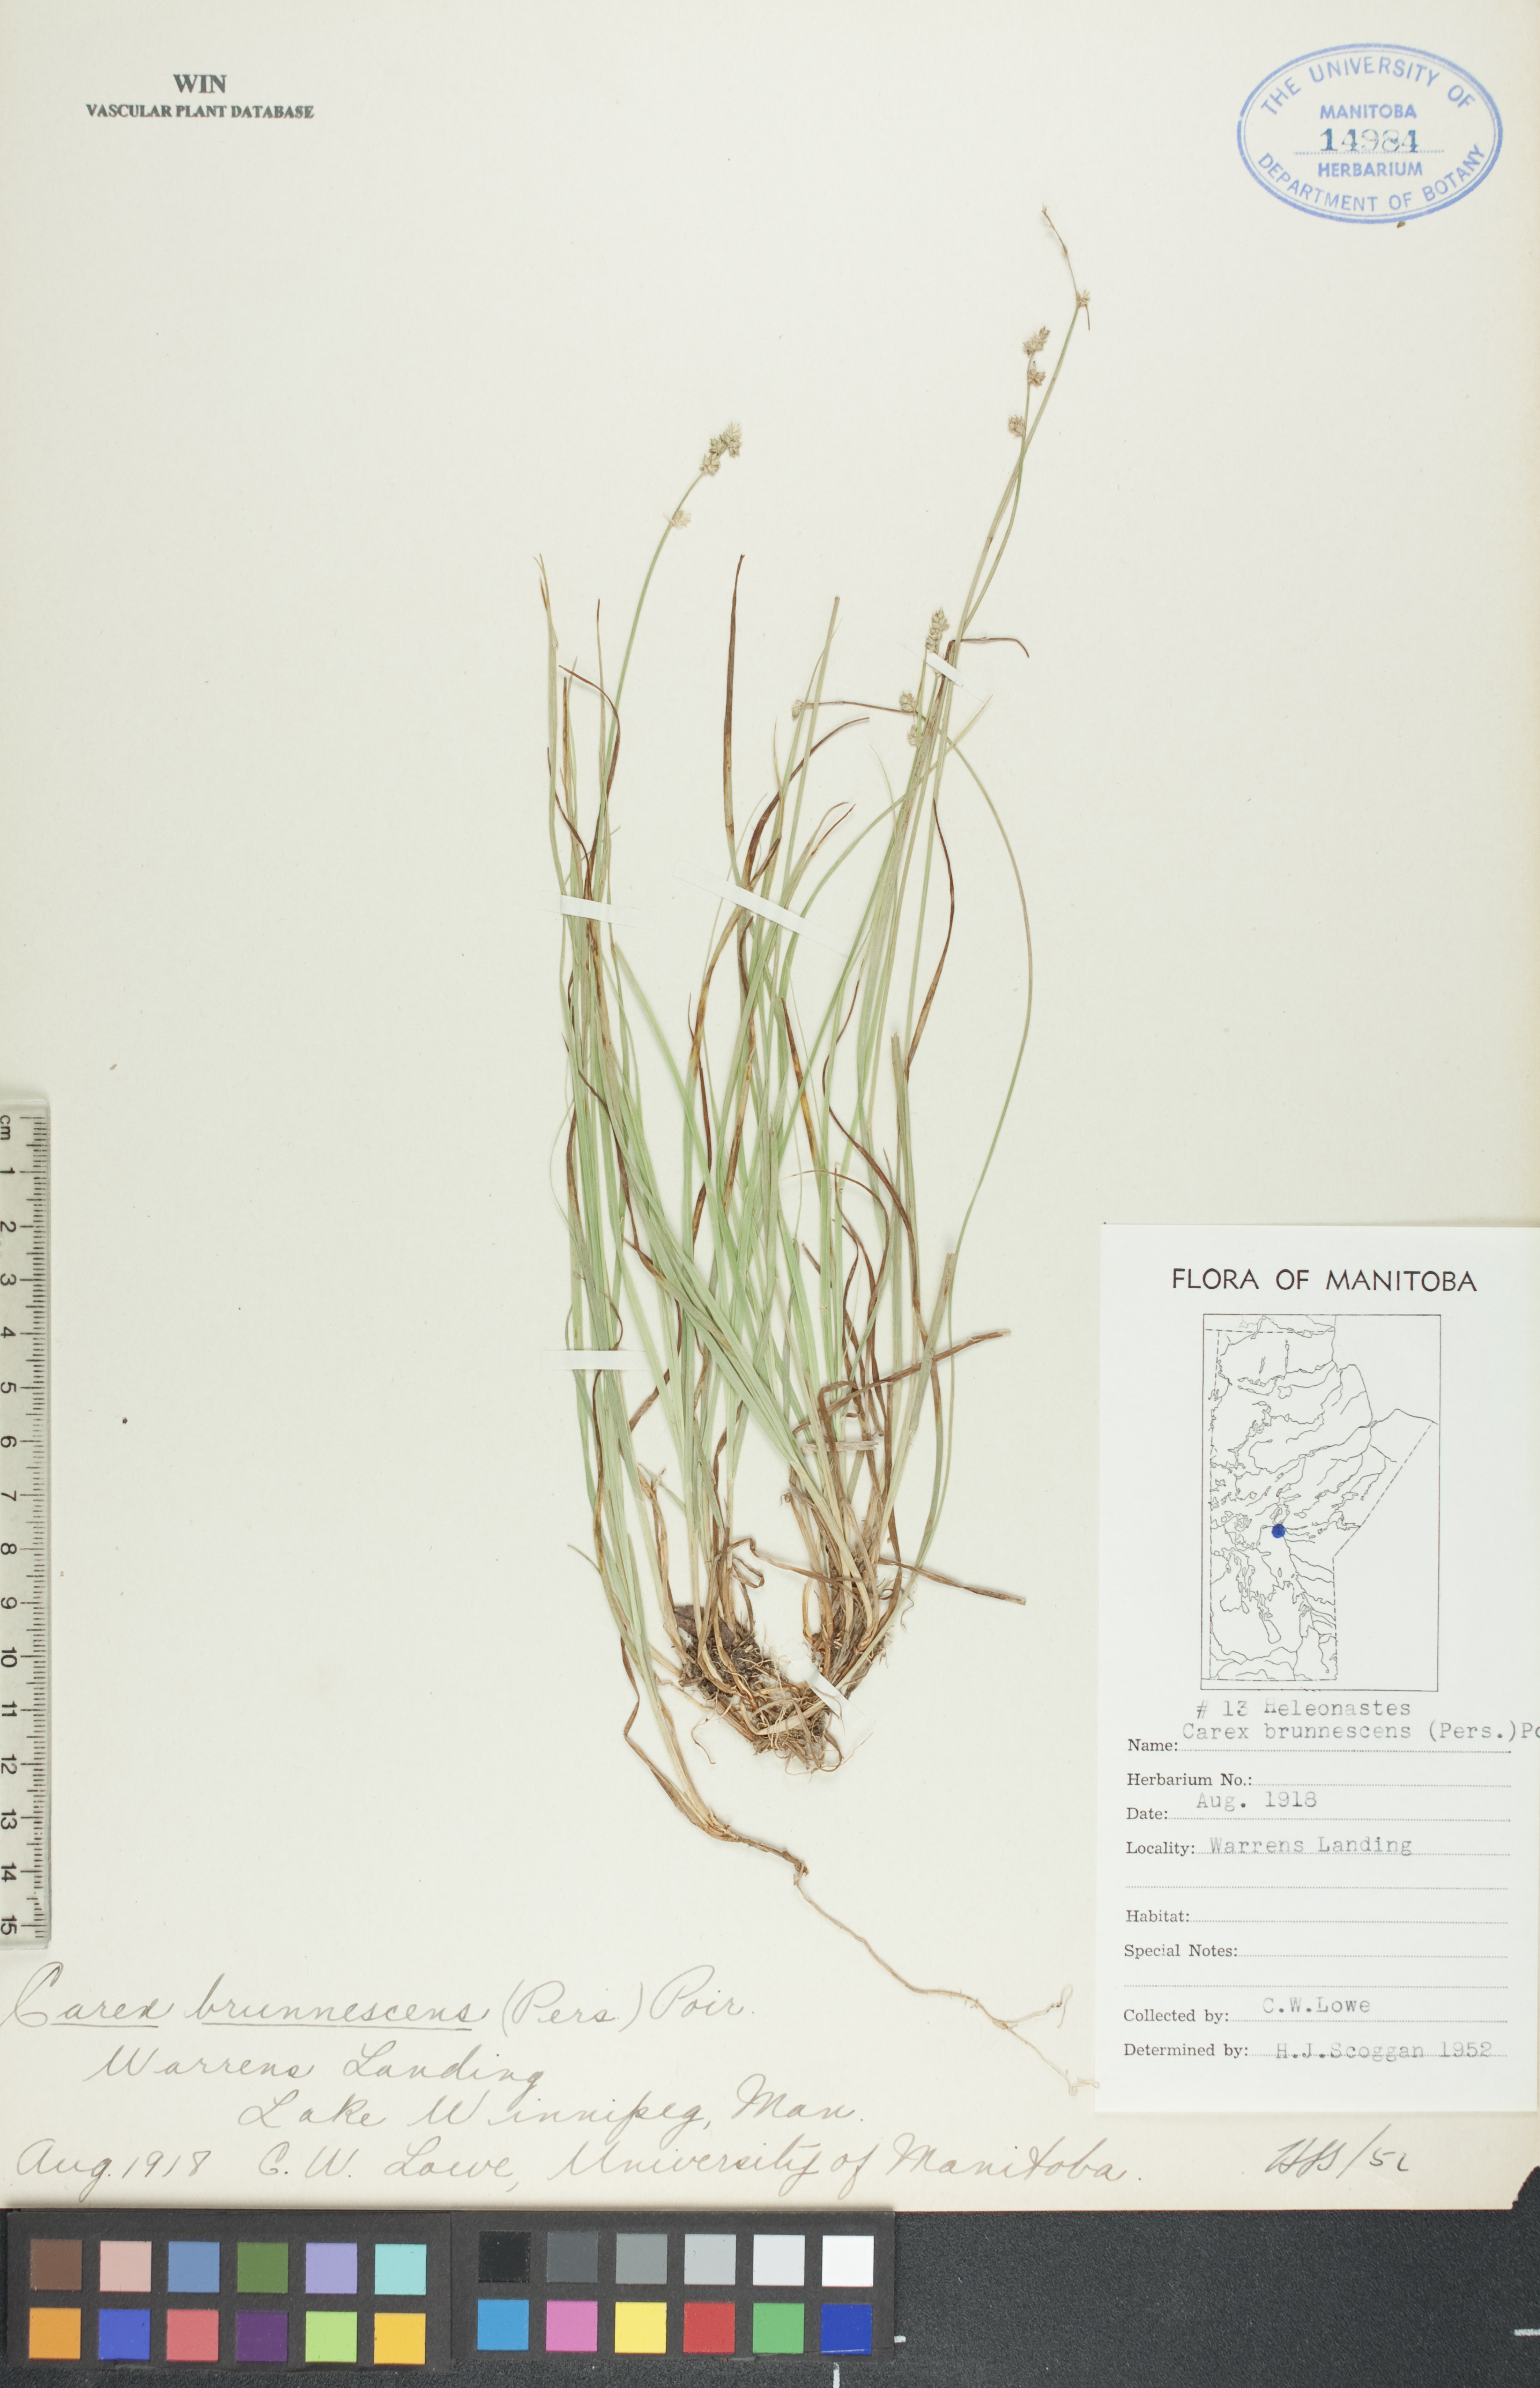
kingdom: Plantae
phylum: Tracheophyta
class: Liliopsida
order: Poales
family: Cyperaceae
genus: Carex
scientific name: Carex brunnescens
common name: Brown sedge
